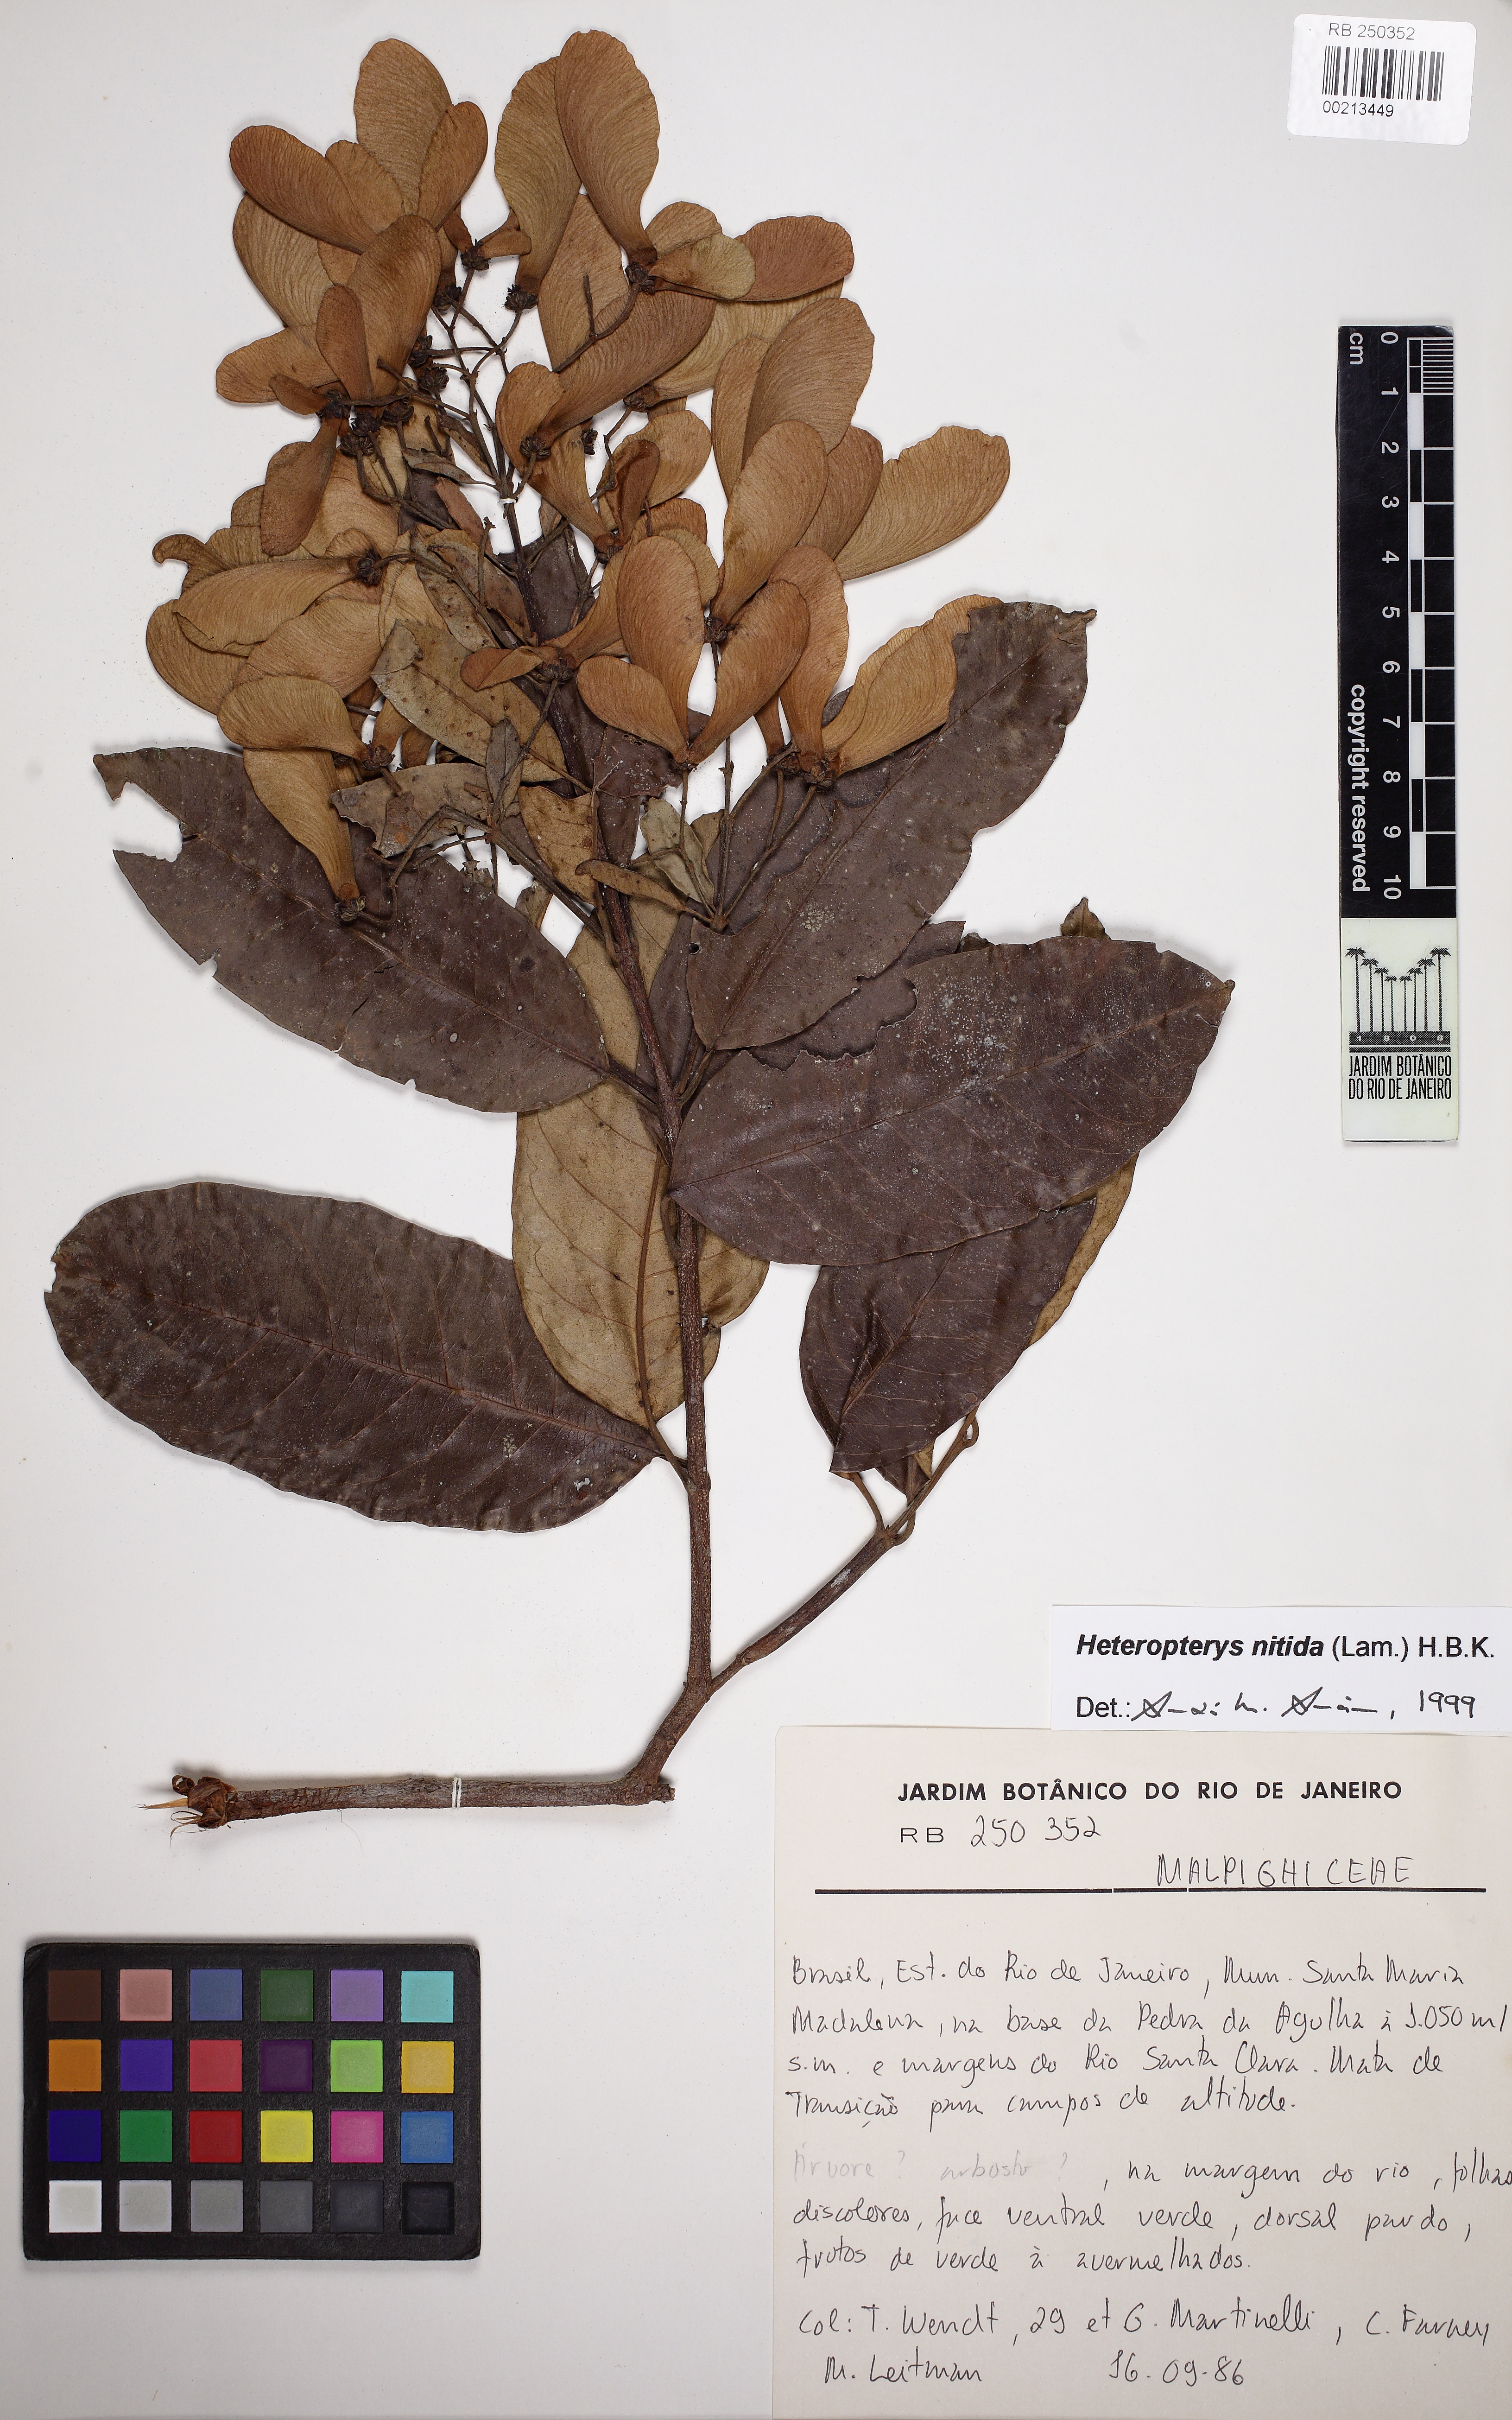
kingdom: Plantae
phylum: Tracheophyta
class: Magnoliopsida
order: Malpighiales
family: Malpighiaceae
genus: Heteropterys
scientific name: Heteropterys nitida
